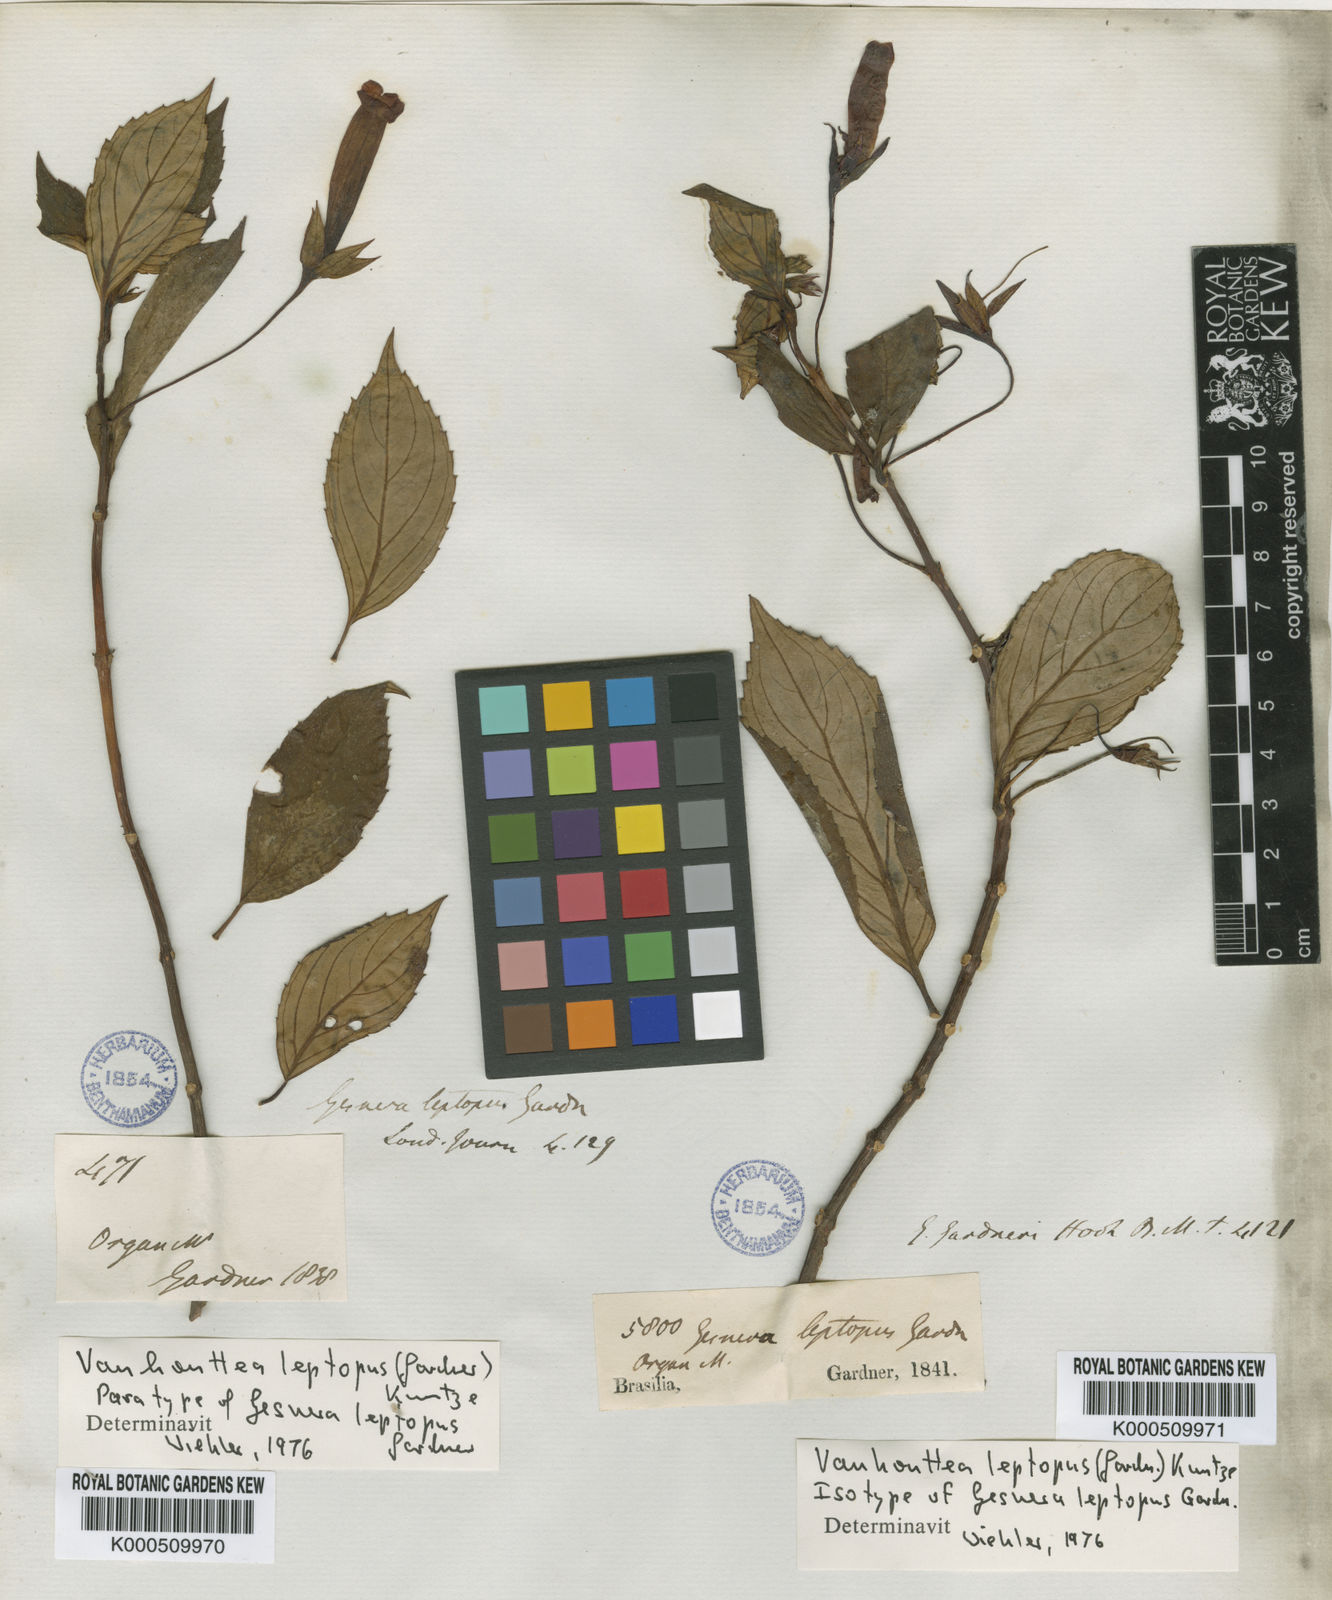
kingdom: Plantae
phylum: Tracheophyta
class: Magnoliopsida
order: Lamiales
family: Gesneriaceae
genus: Vanhouttea
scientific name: Vanhouttea gardneri
